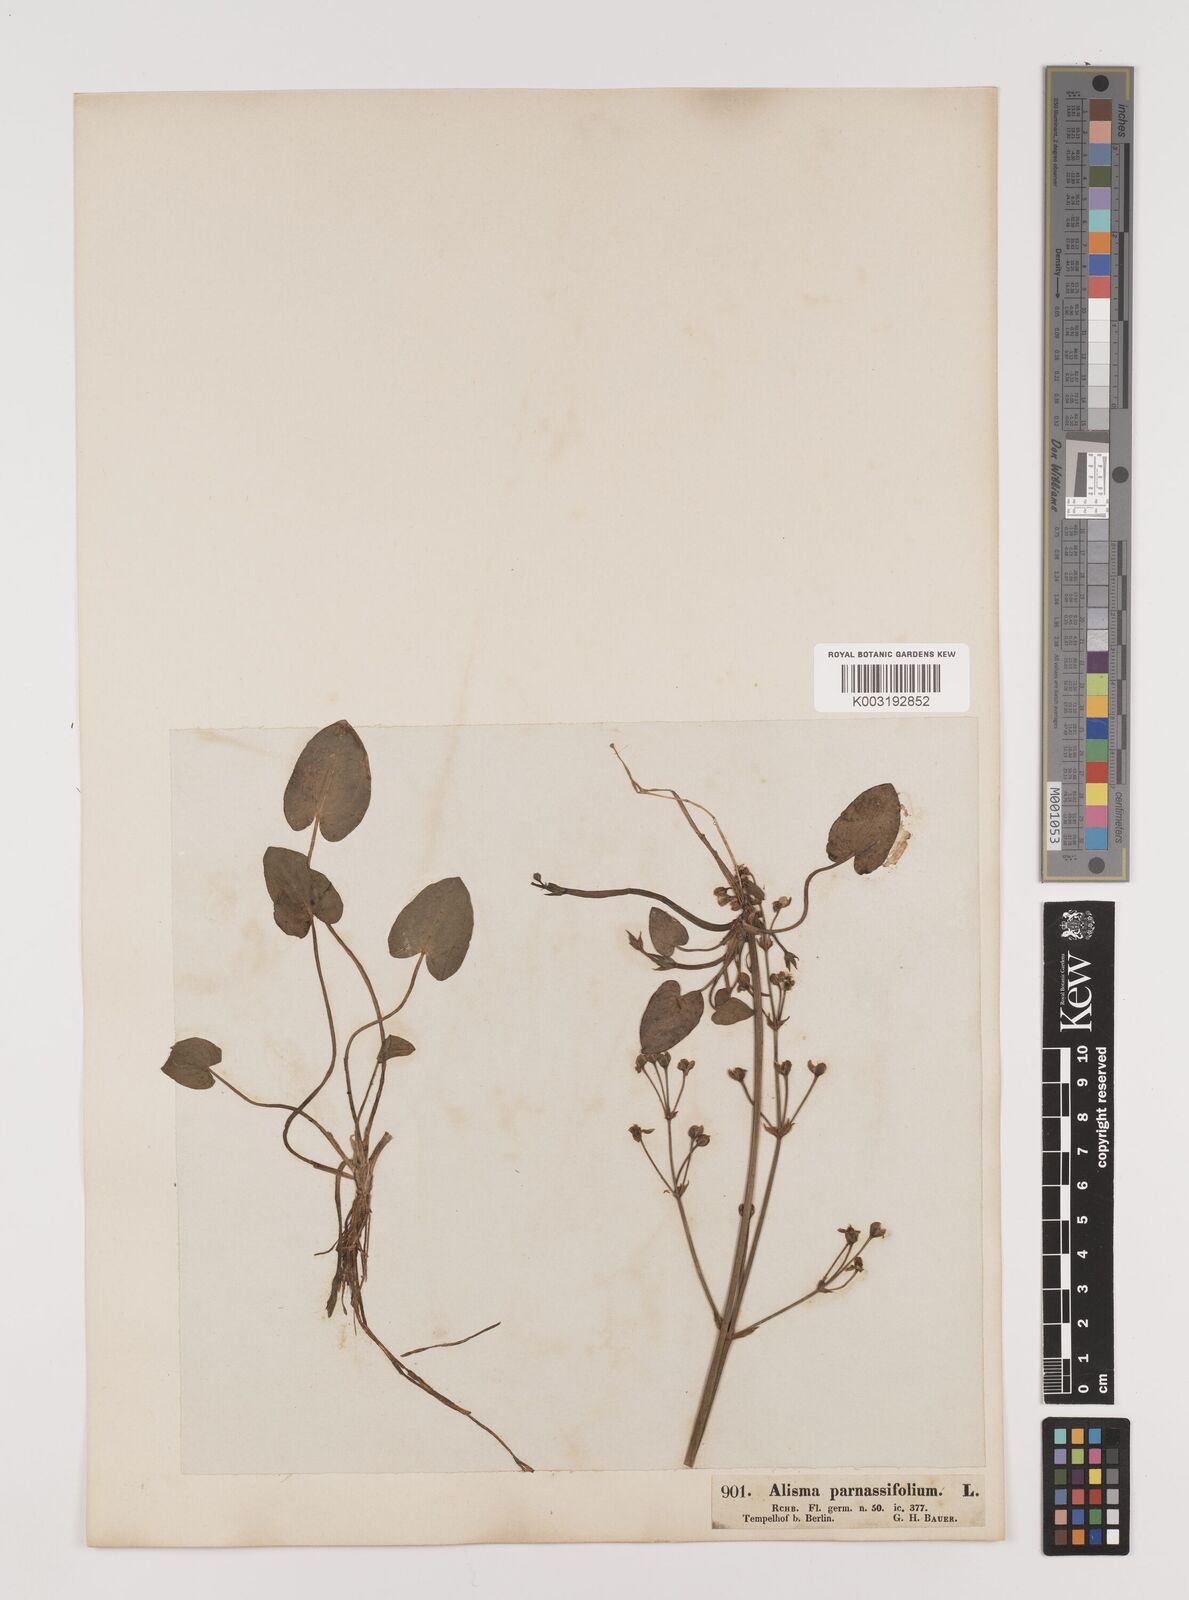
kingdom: Plantae
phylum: Tracheophyta
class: Liliopsida
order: Alismatales
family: Alismataceae
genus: Caldesia
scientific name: Caldesia parnassifolia
